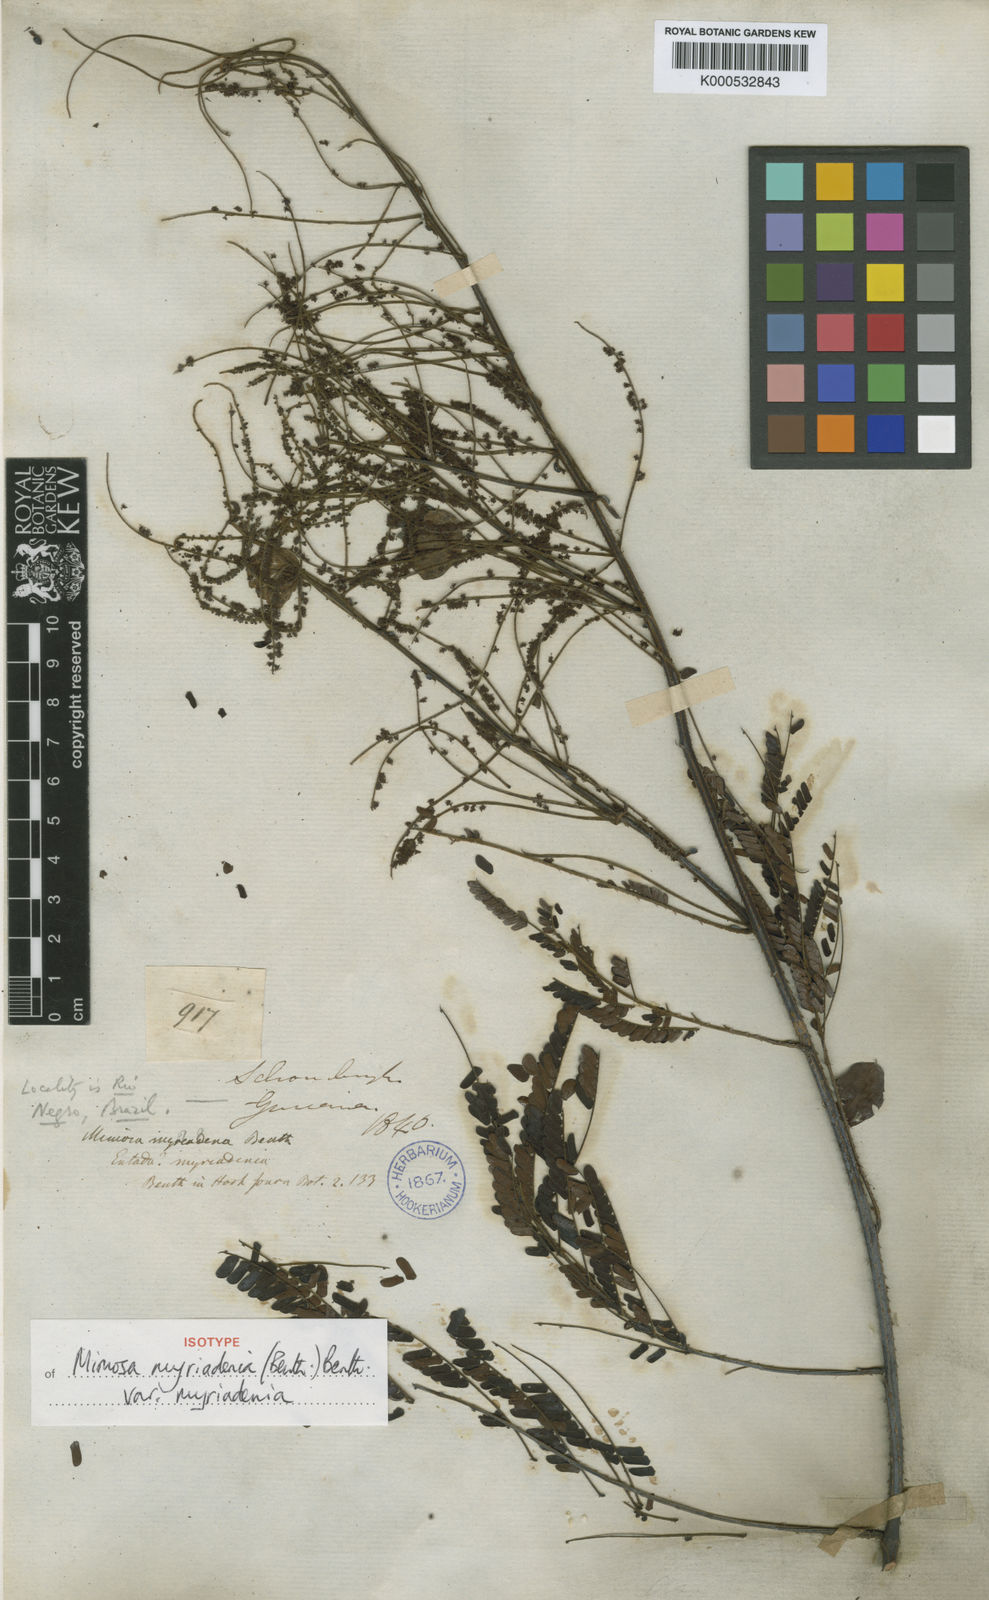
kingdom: Plantae
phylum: Tracheophyta
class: Magnoliopsida
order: Fabales
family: Fabaceae
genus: Mimosa
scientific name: Mimosa myriadenia
